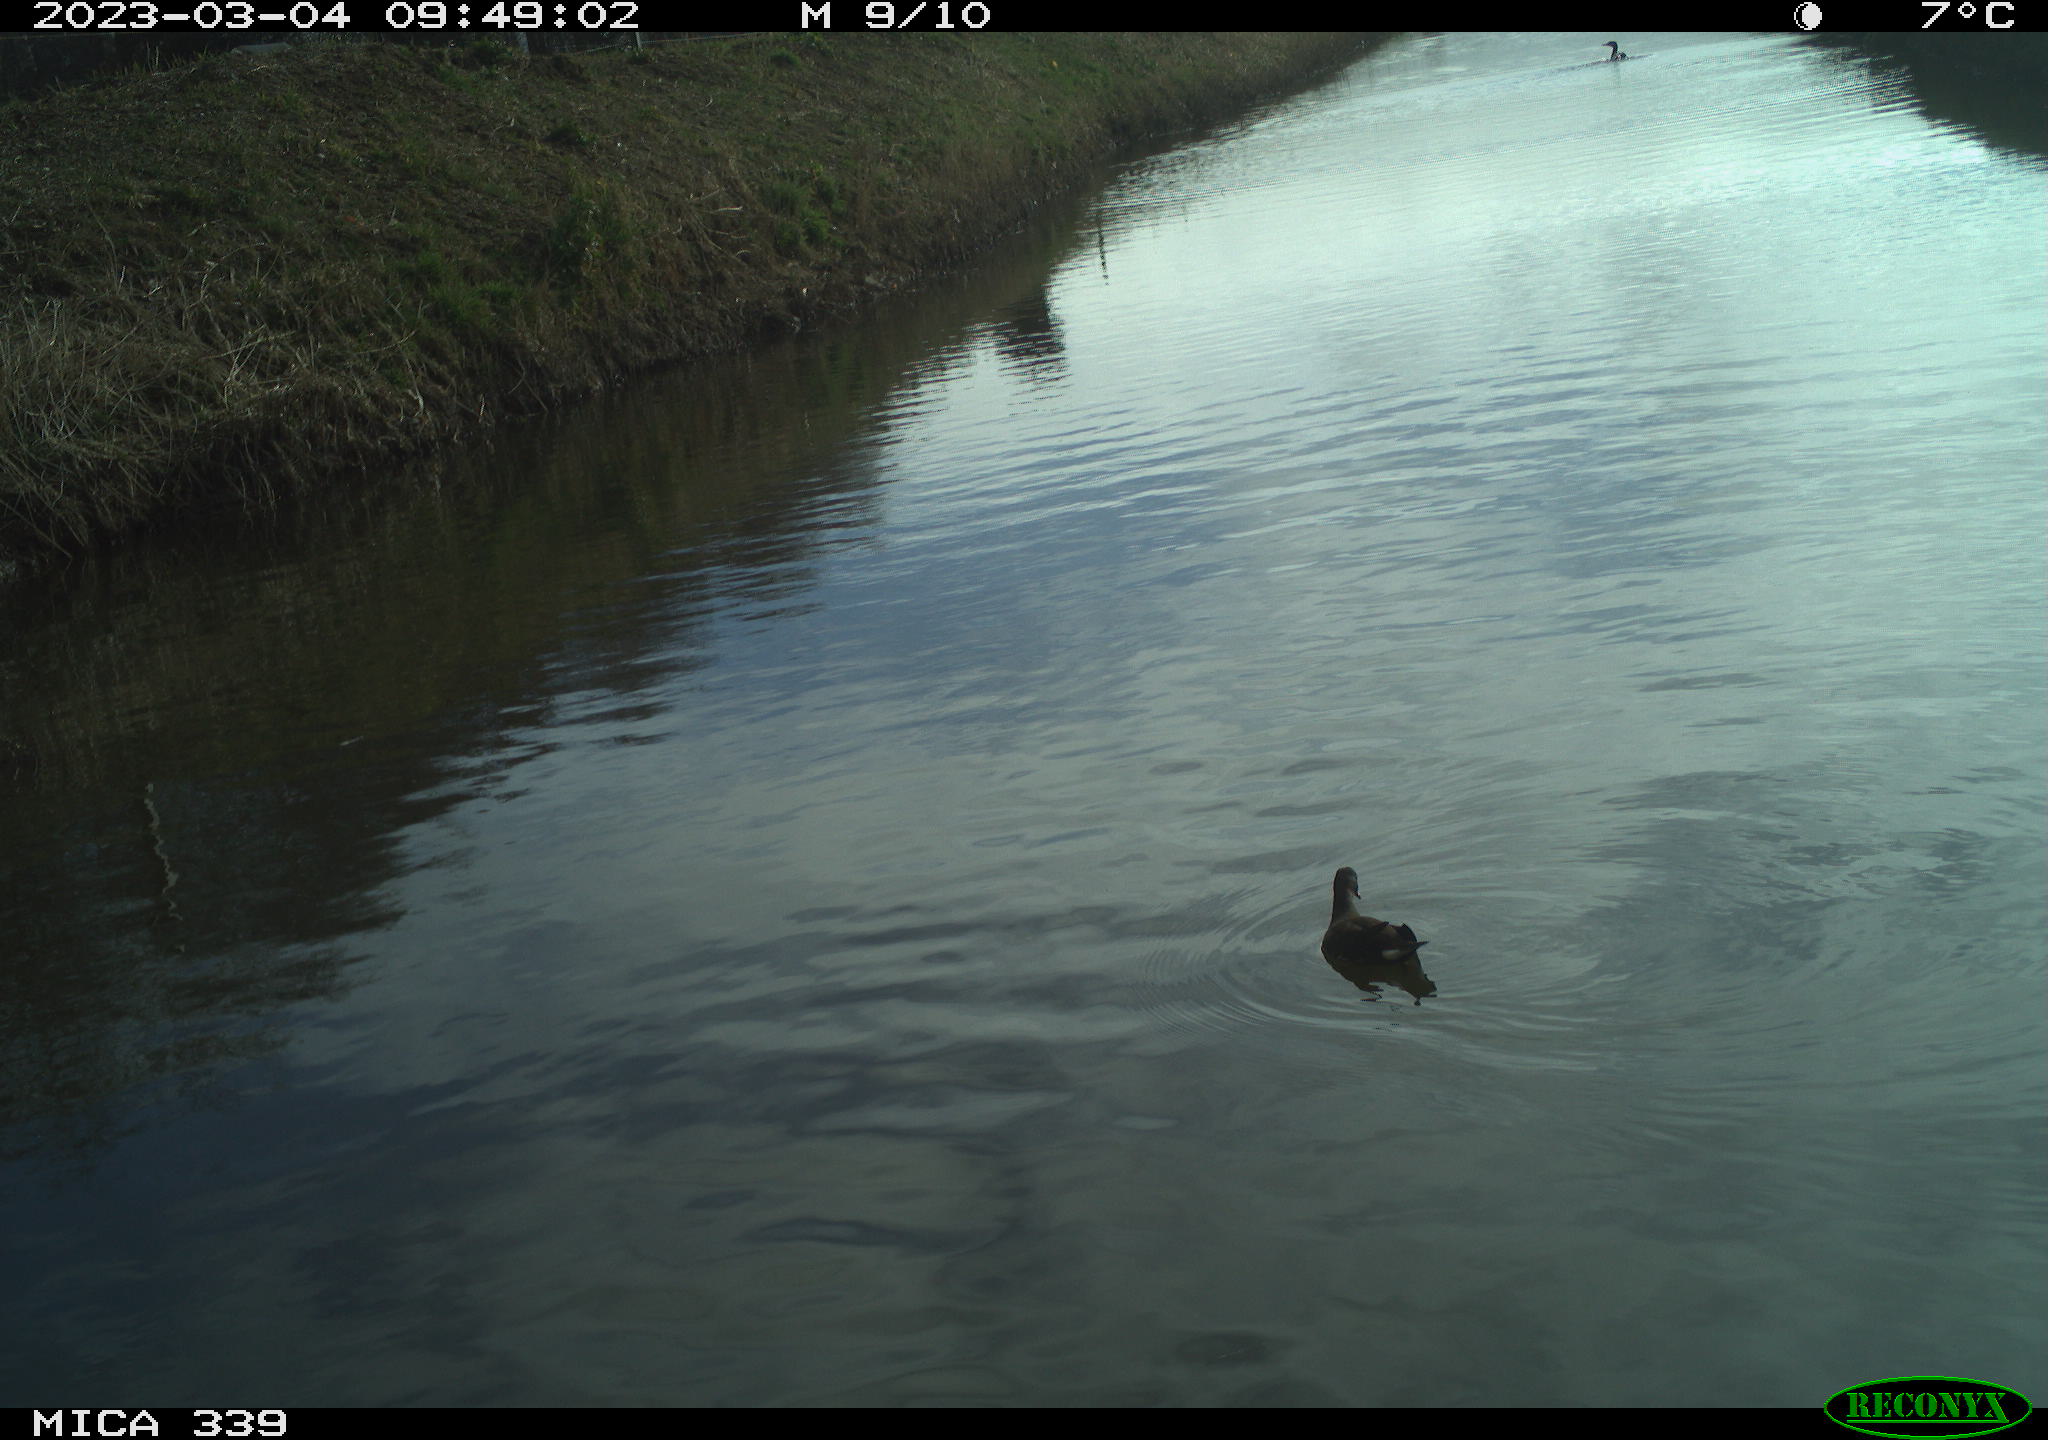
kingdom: Animalia
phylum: Chordata
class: Aves
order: Gruiformes
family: Rallidae
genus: Gallinula
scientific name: Gallinula chloropus
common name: Common moorhen
